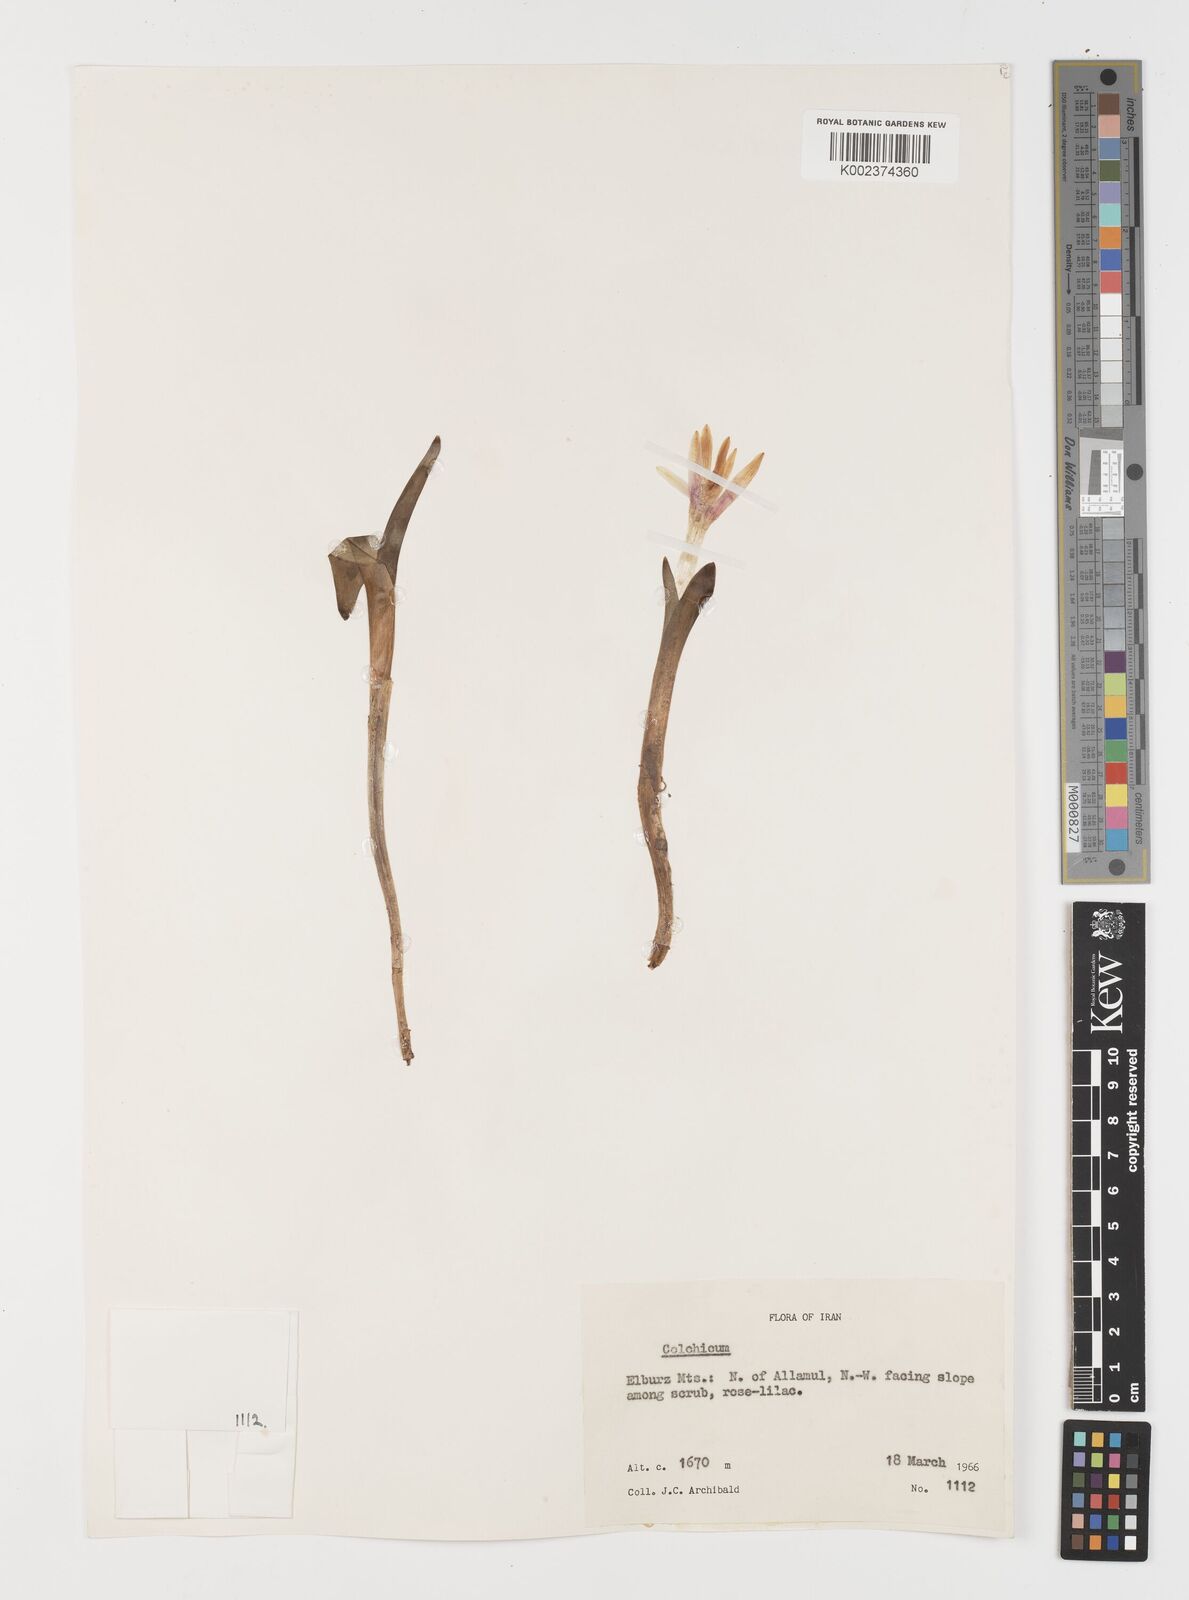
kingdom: Plantae
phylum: Tracheophyta
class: Liliopsida
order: Liliales
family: Colchicaceae
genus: Colchicum
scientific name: Colchicum
